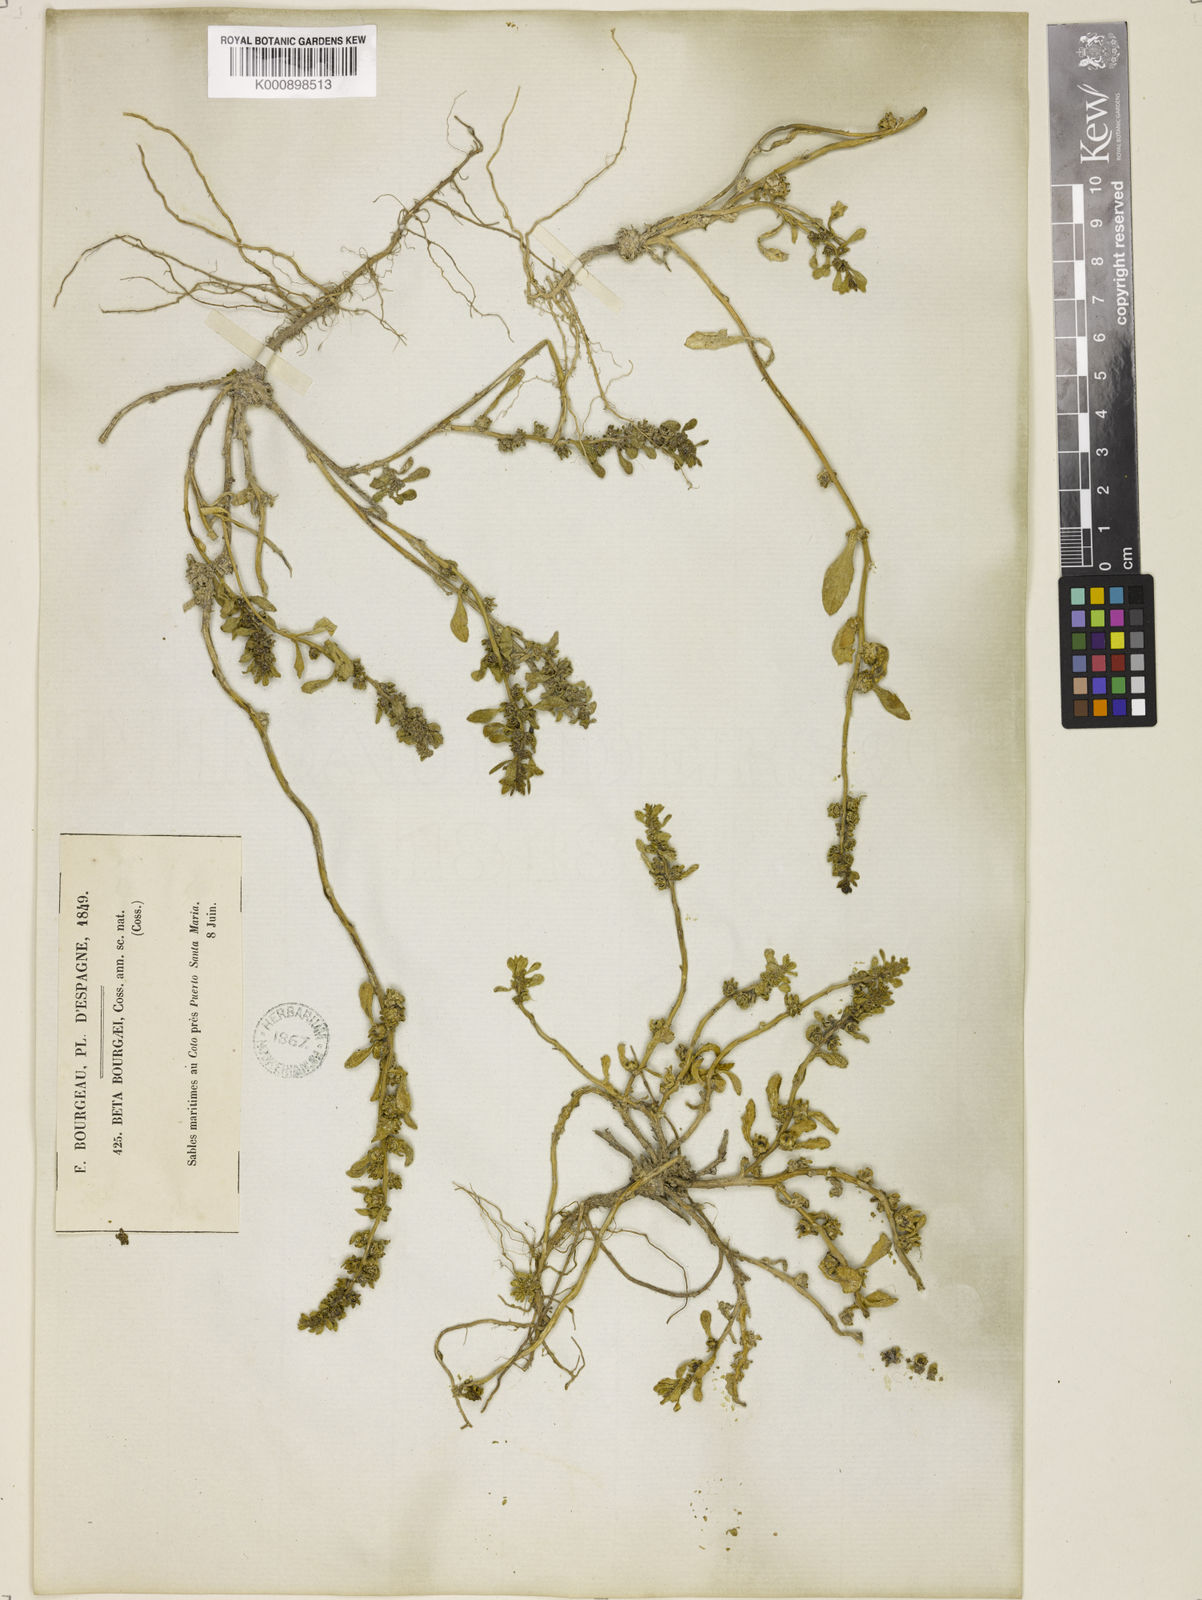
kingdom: Plantae
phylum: Tracheophyta
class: Magnoliopsida
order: Caryophyllales
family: Amaranthaceae
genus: Beta
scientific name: Beta macrocarpa
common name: Beet
